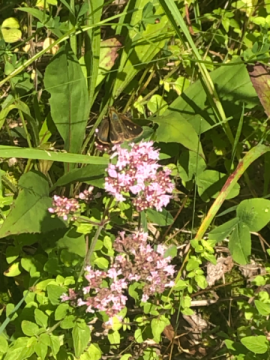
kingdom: Animalia
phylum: Arthropoda
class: Insecta
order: Lepidoptera
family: Hesperiidae
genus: Vernia
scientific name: Vernia verna
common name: Little Glassywing
